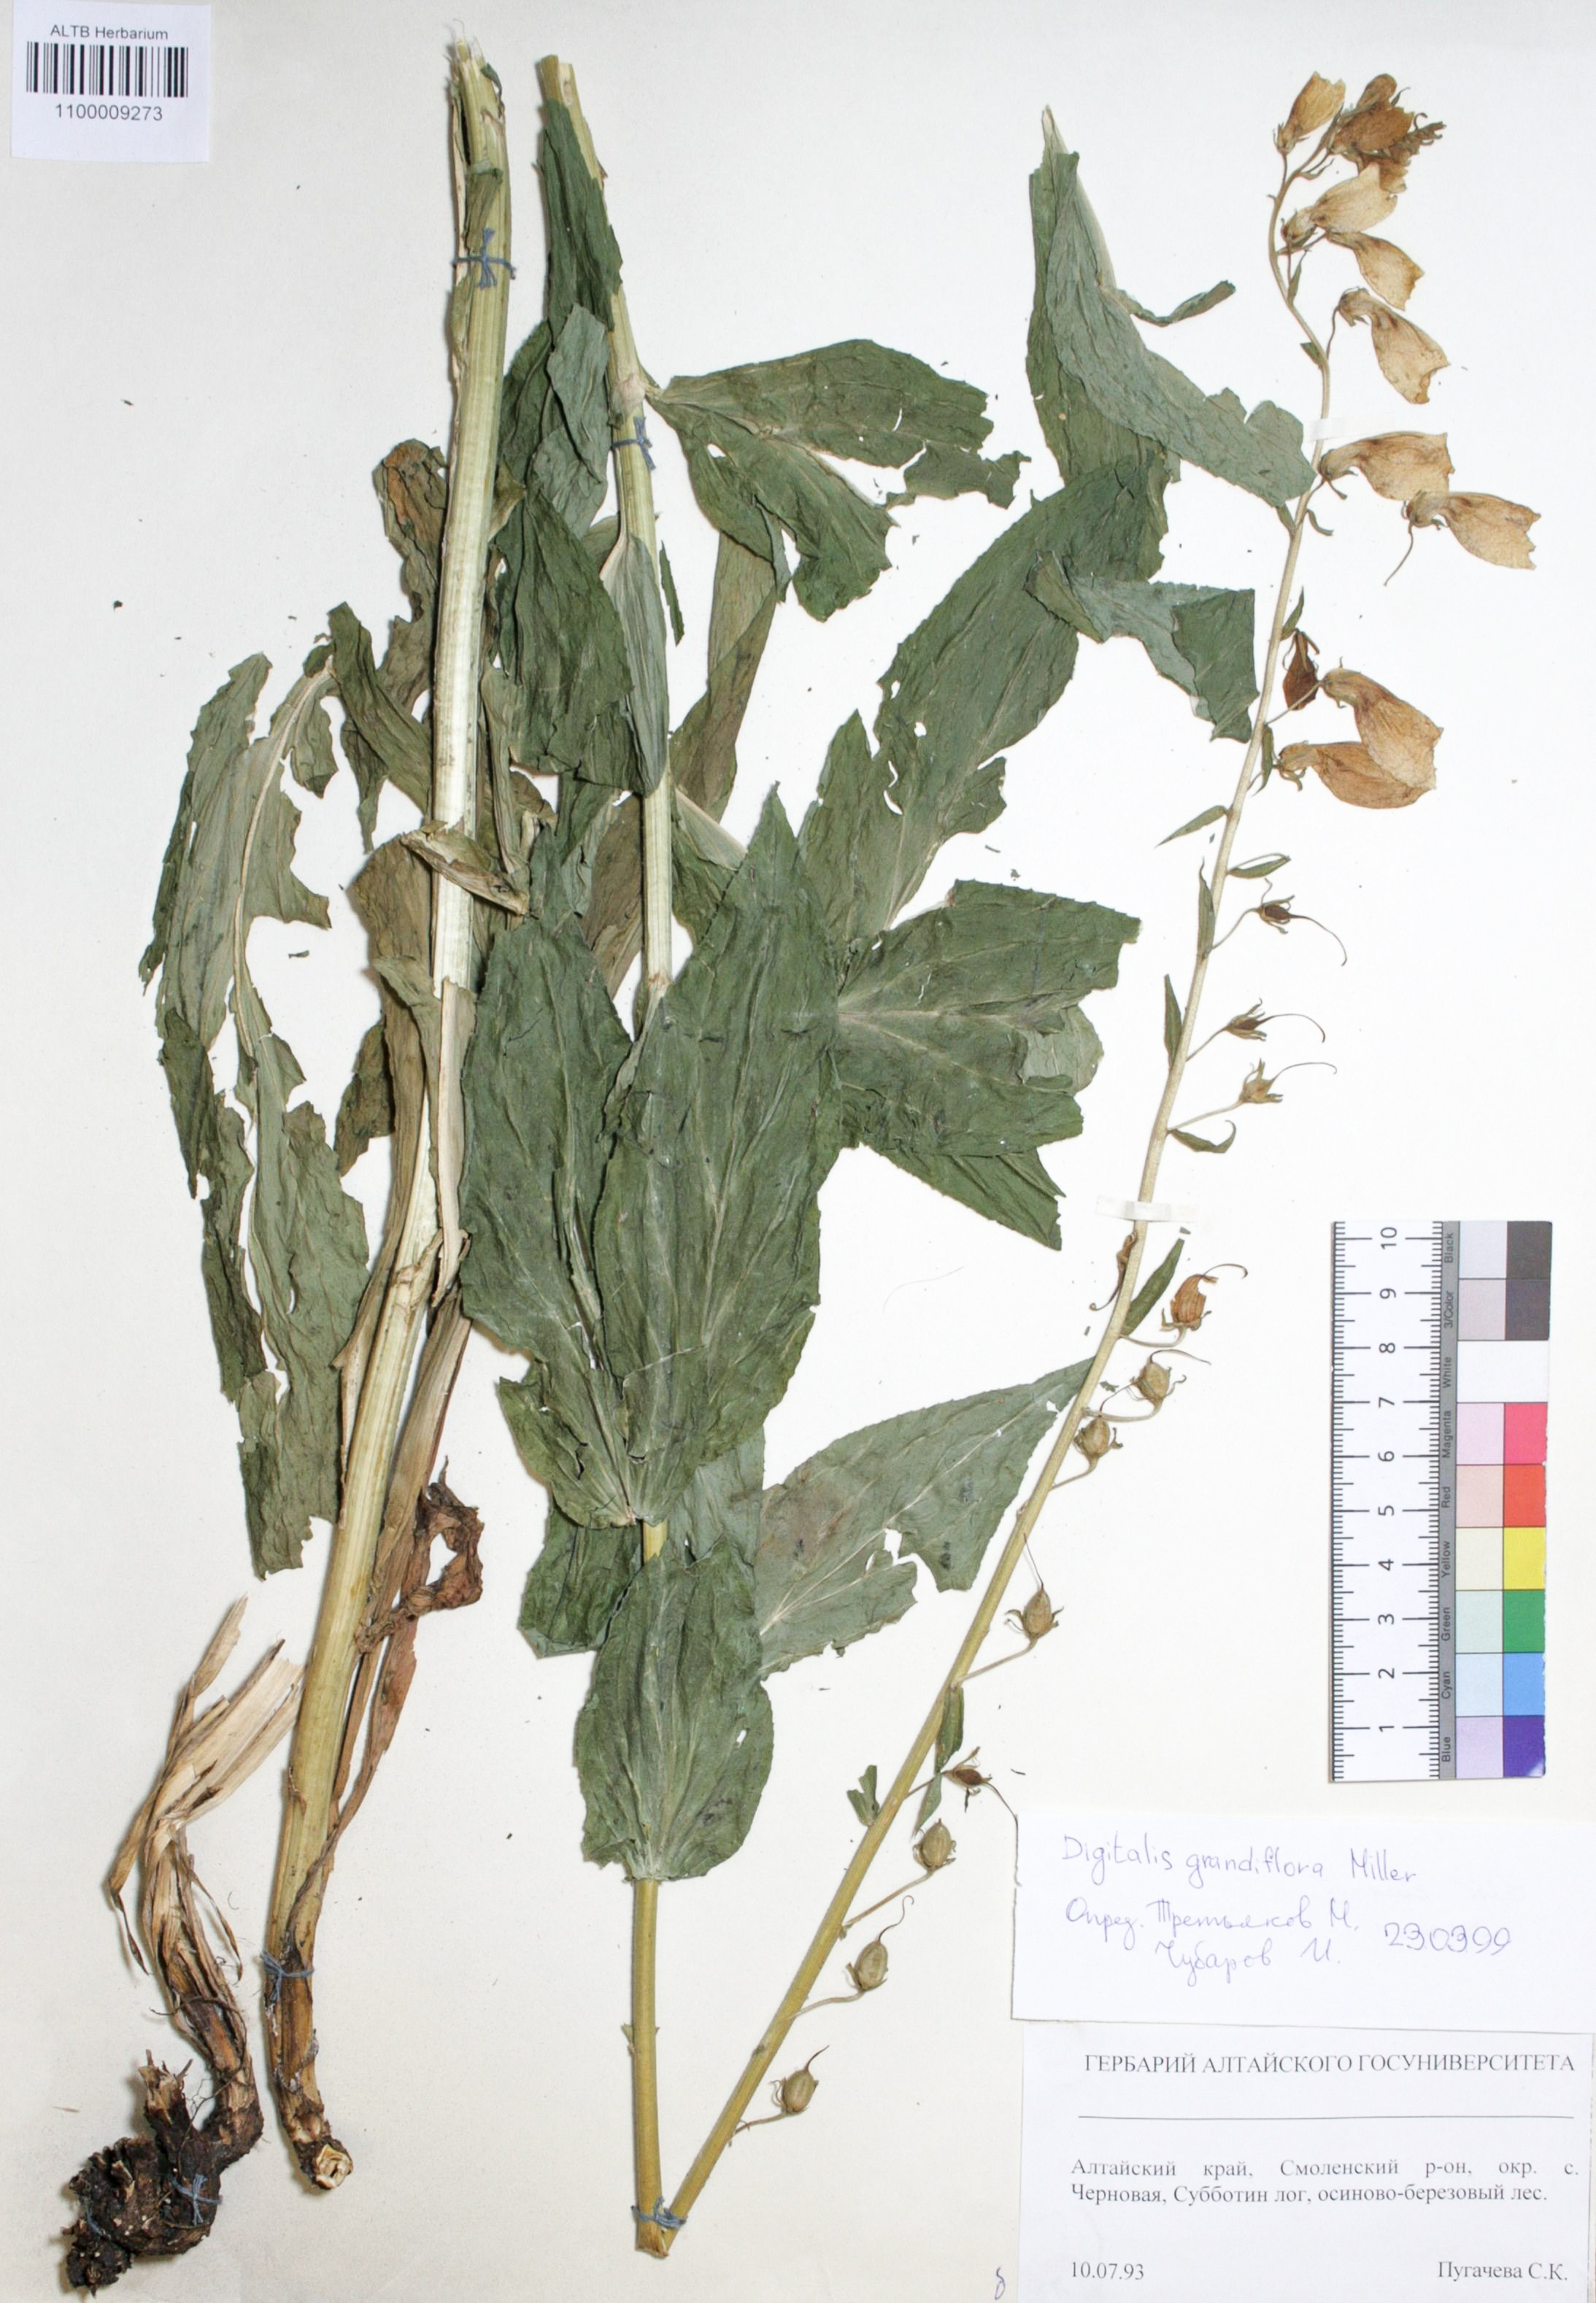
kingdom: Plantae
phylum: Tracheophyta
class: Magnoliopsida
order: Lamiales
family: Plantaginaceae
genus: Digitalis
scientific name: Digitalis grandiflora
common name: Yellow foxglove
